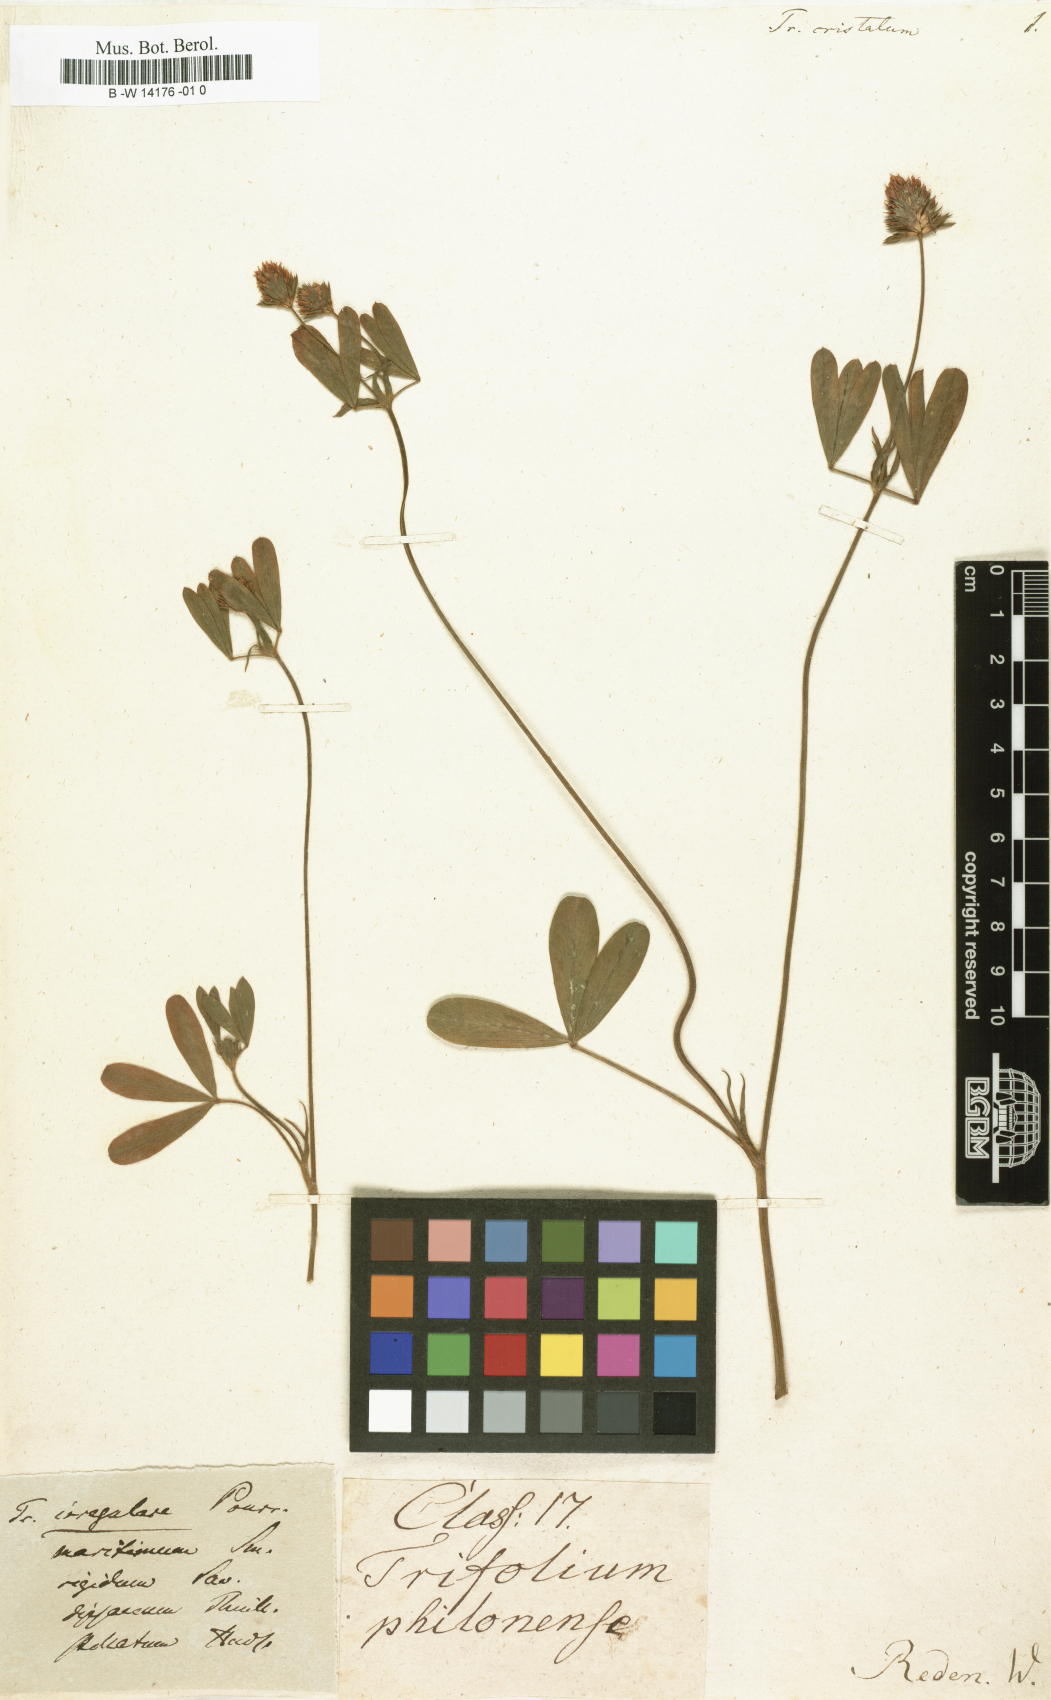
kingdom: Plantae
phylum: Tracheophyta
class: Magnoliopsida
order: Fabales
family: Fabaceae
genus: Trifolium
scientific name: Trifolium
